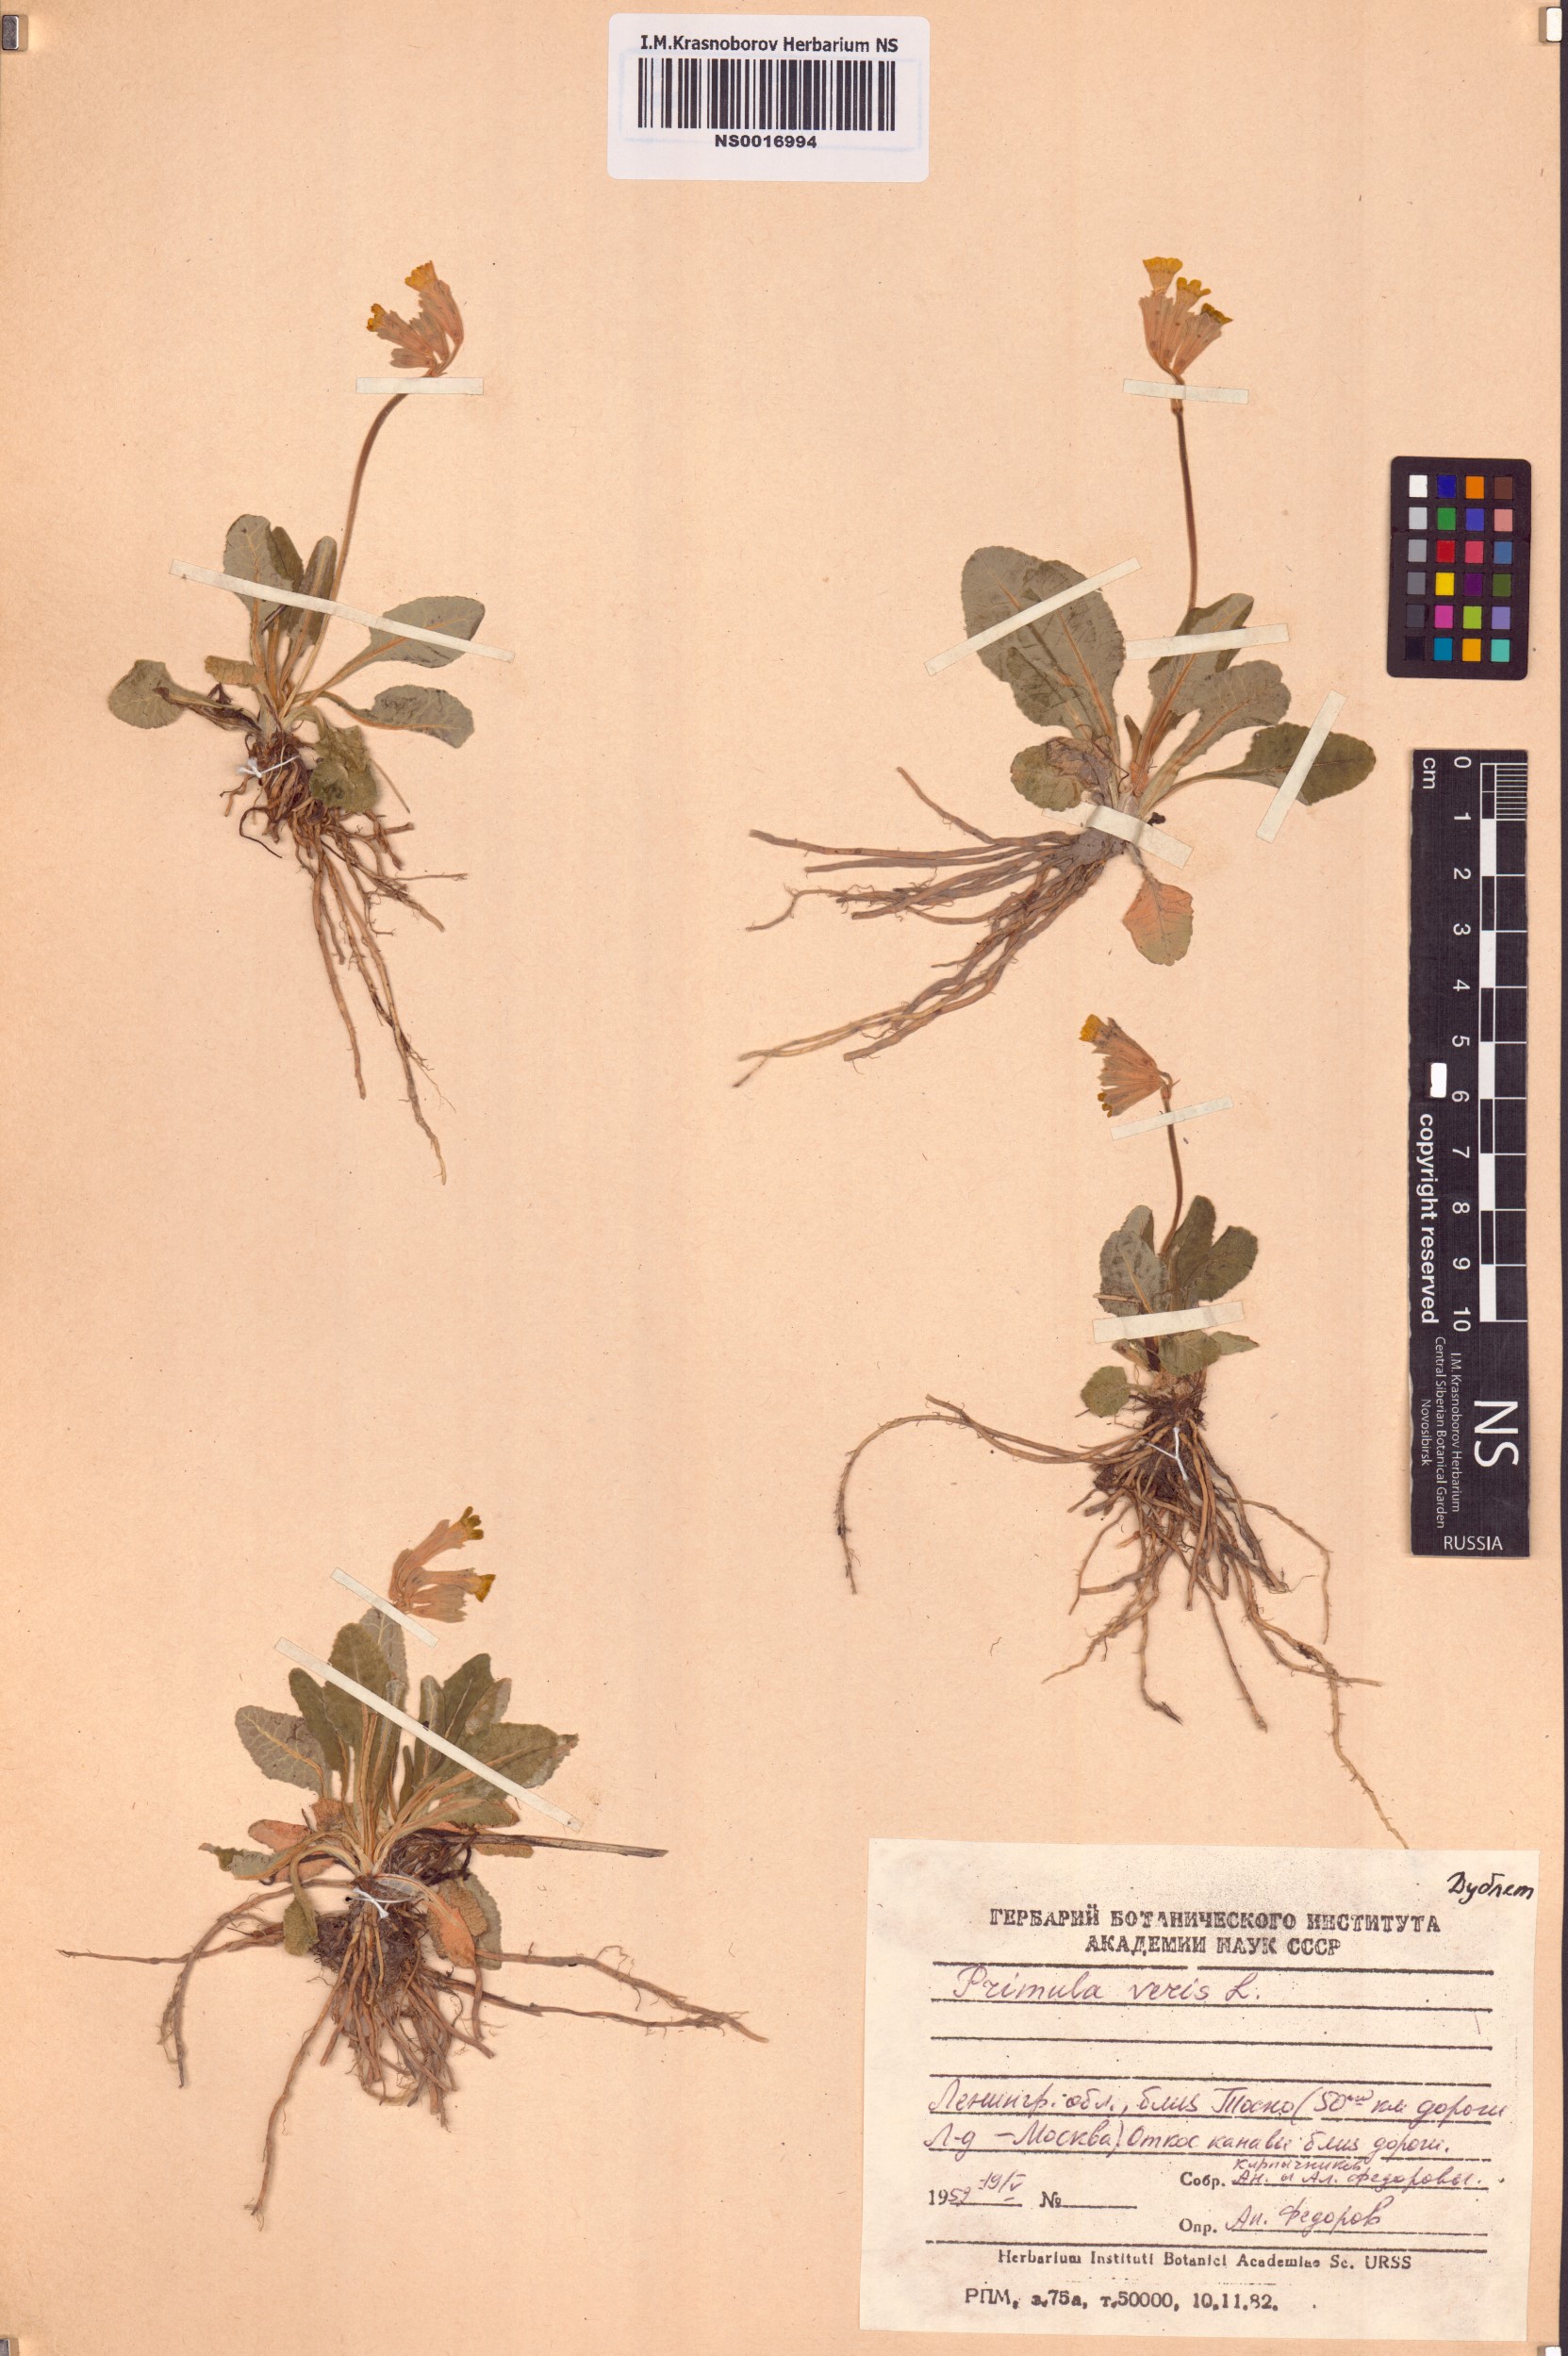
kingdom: Plantae
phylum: Tracheophyta
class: Magnoliopsida
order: Ericales
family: Primulaceae
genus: Primula
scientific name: Primula veris
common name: Cowslip
